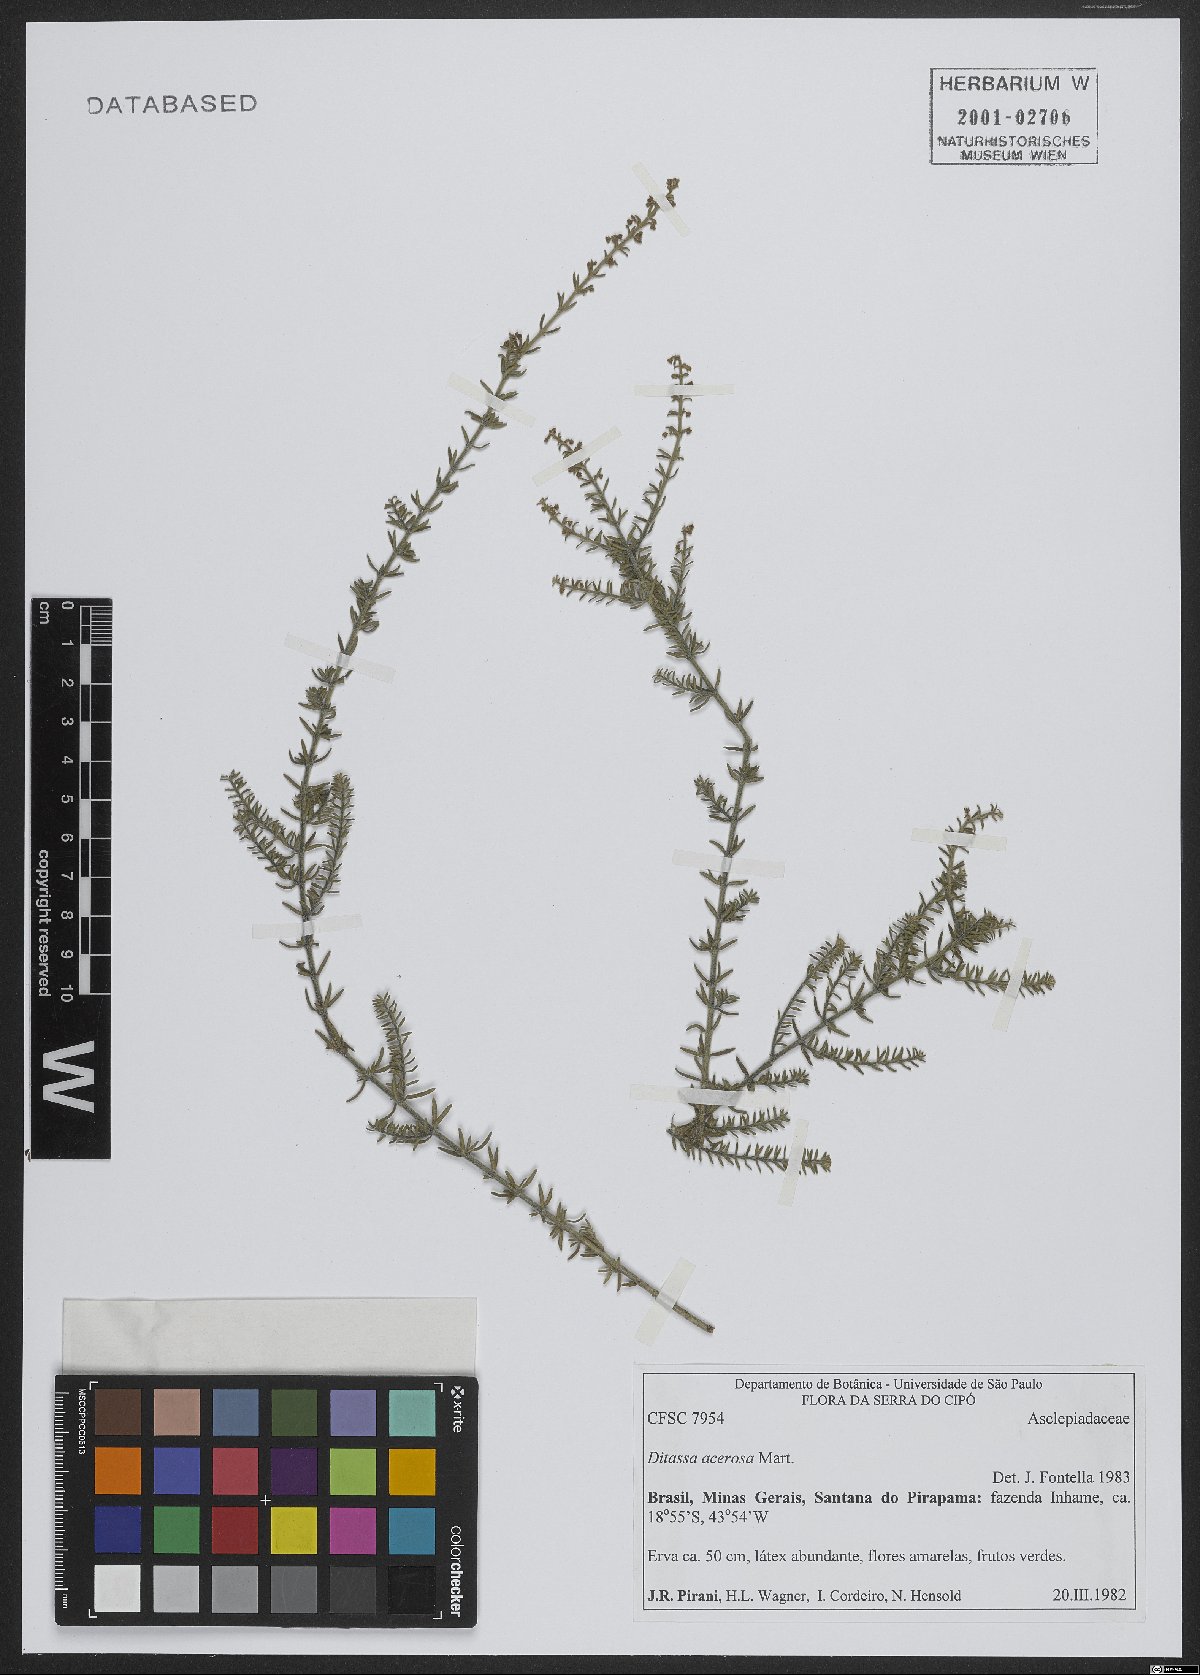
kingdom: Plantae
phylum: Tracheophyta
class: Magnoliopsida
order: Gentianales
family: Apocynaceae
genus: Minaria
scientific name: Minaria acerosa
